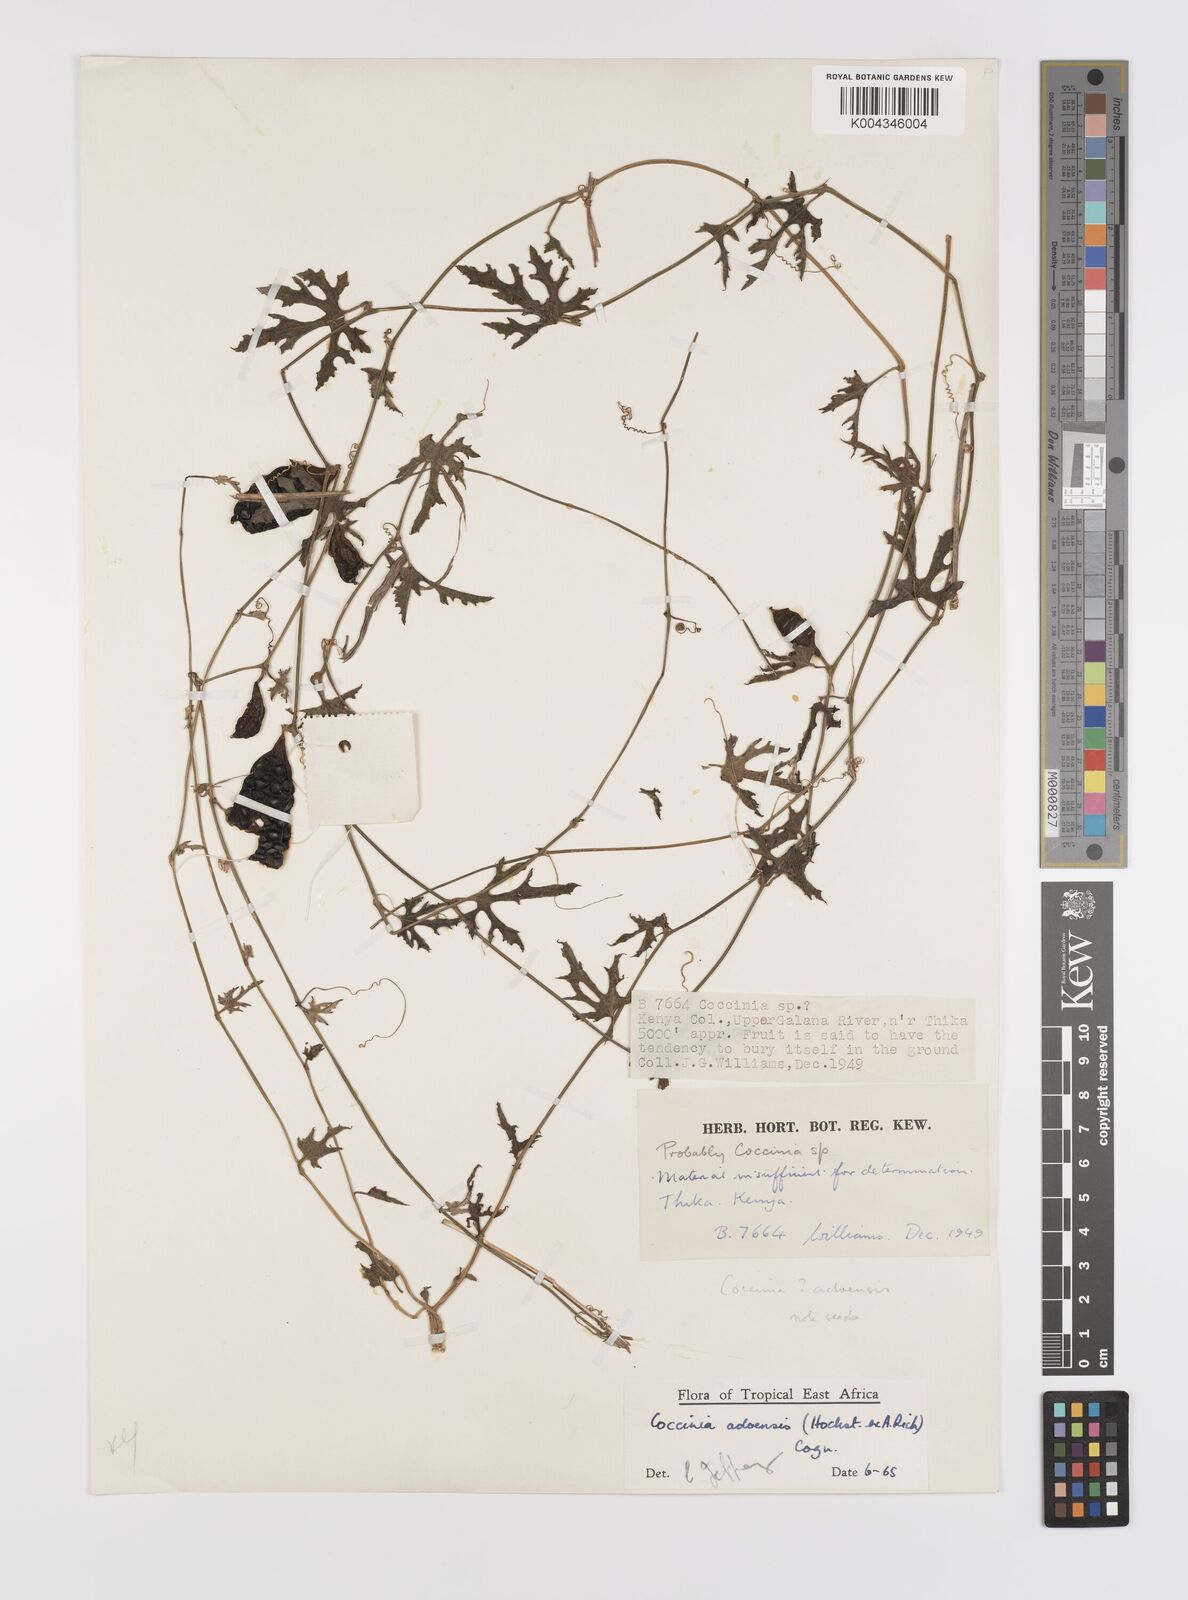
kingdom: Plantae
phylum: Tracheophyta
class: Magnoliopsida
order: Cucurbitales
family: Cucurbitaceae
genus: Coccinia
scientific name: Coccinia adoensis
